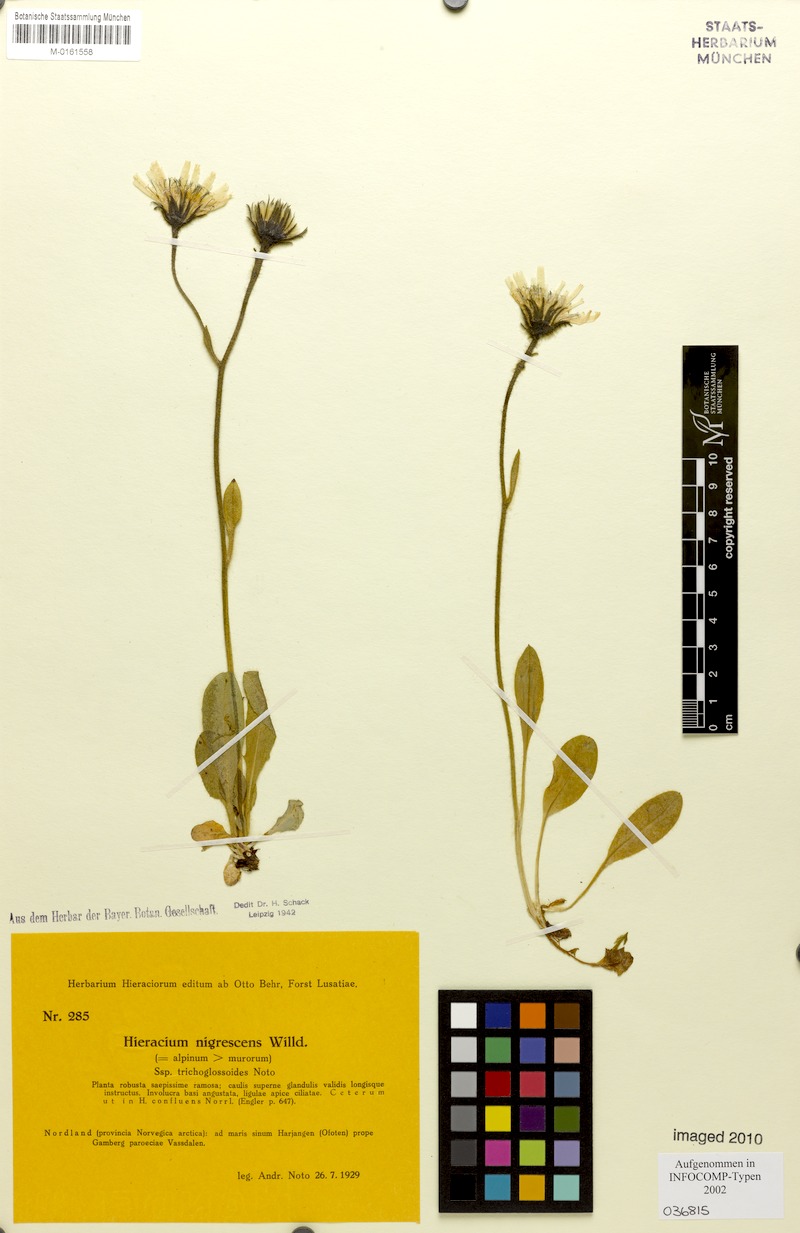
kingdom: Plantae
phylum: Tracheophyta
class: Magnoliopsida
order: Asterales
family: Asteraceae
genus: Hieracium
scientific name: Hieracium nigrescens
